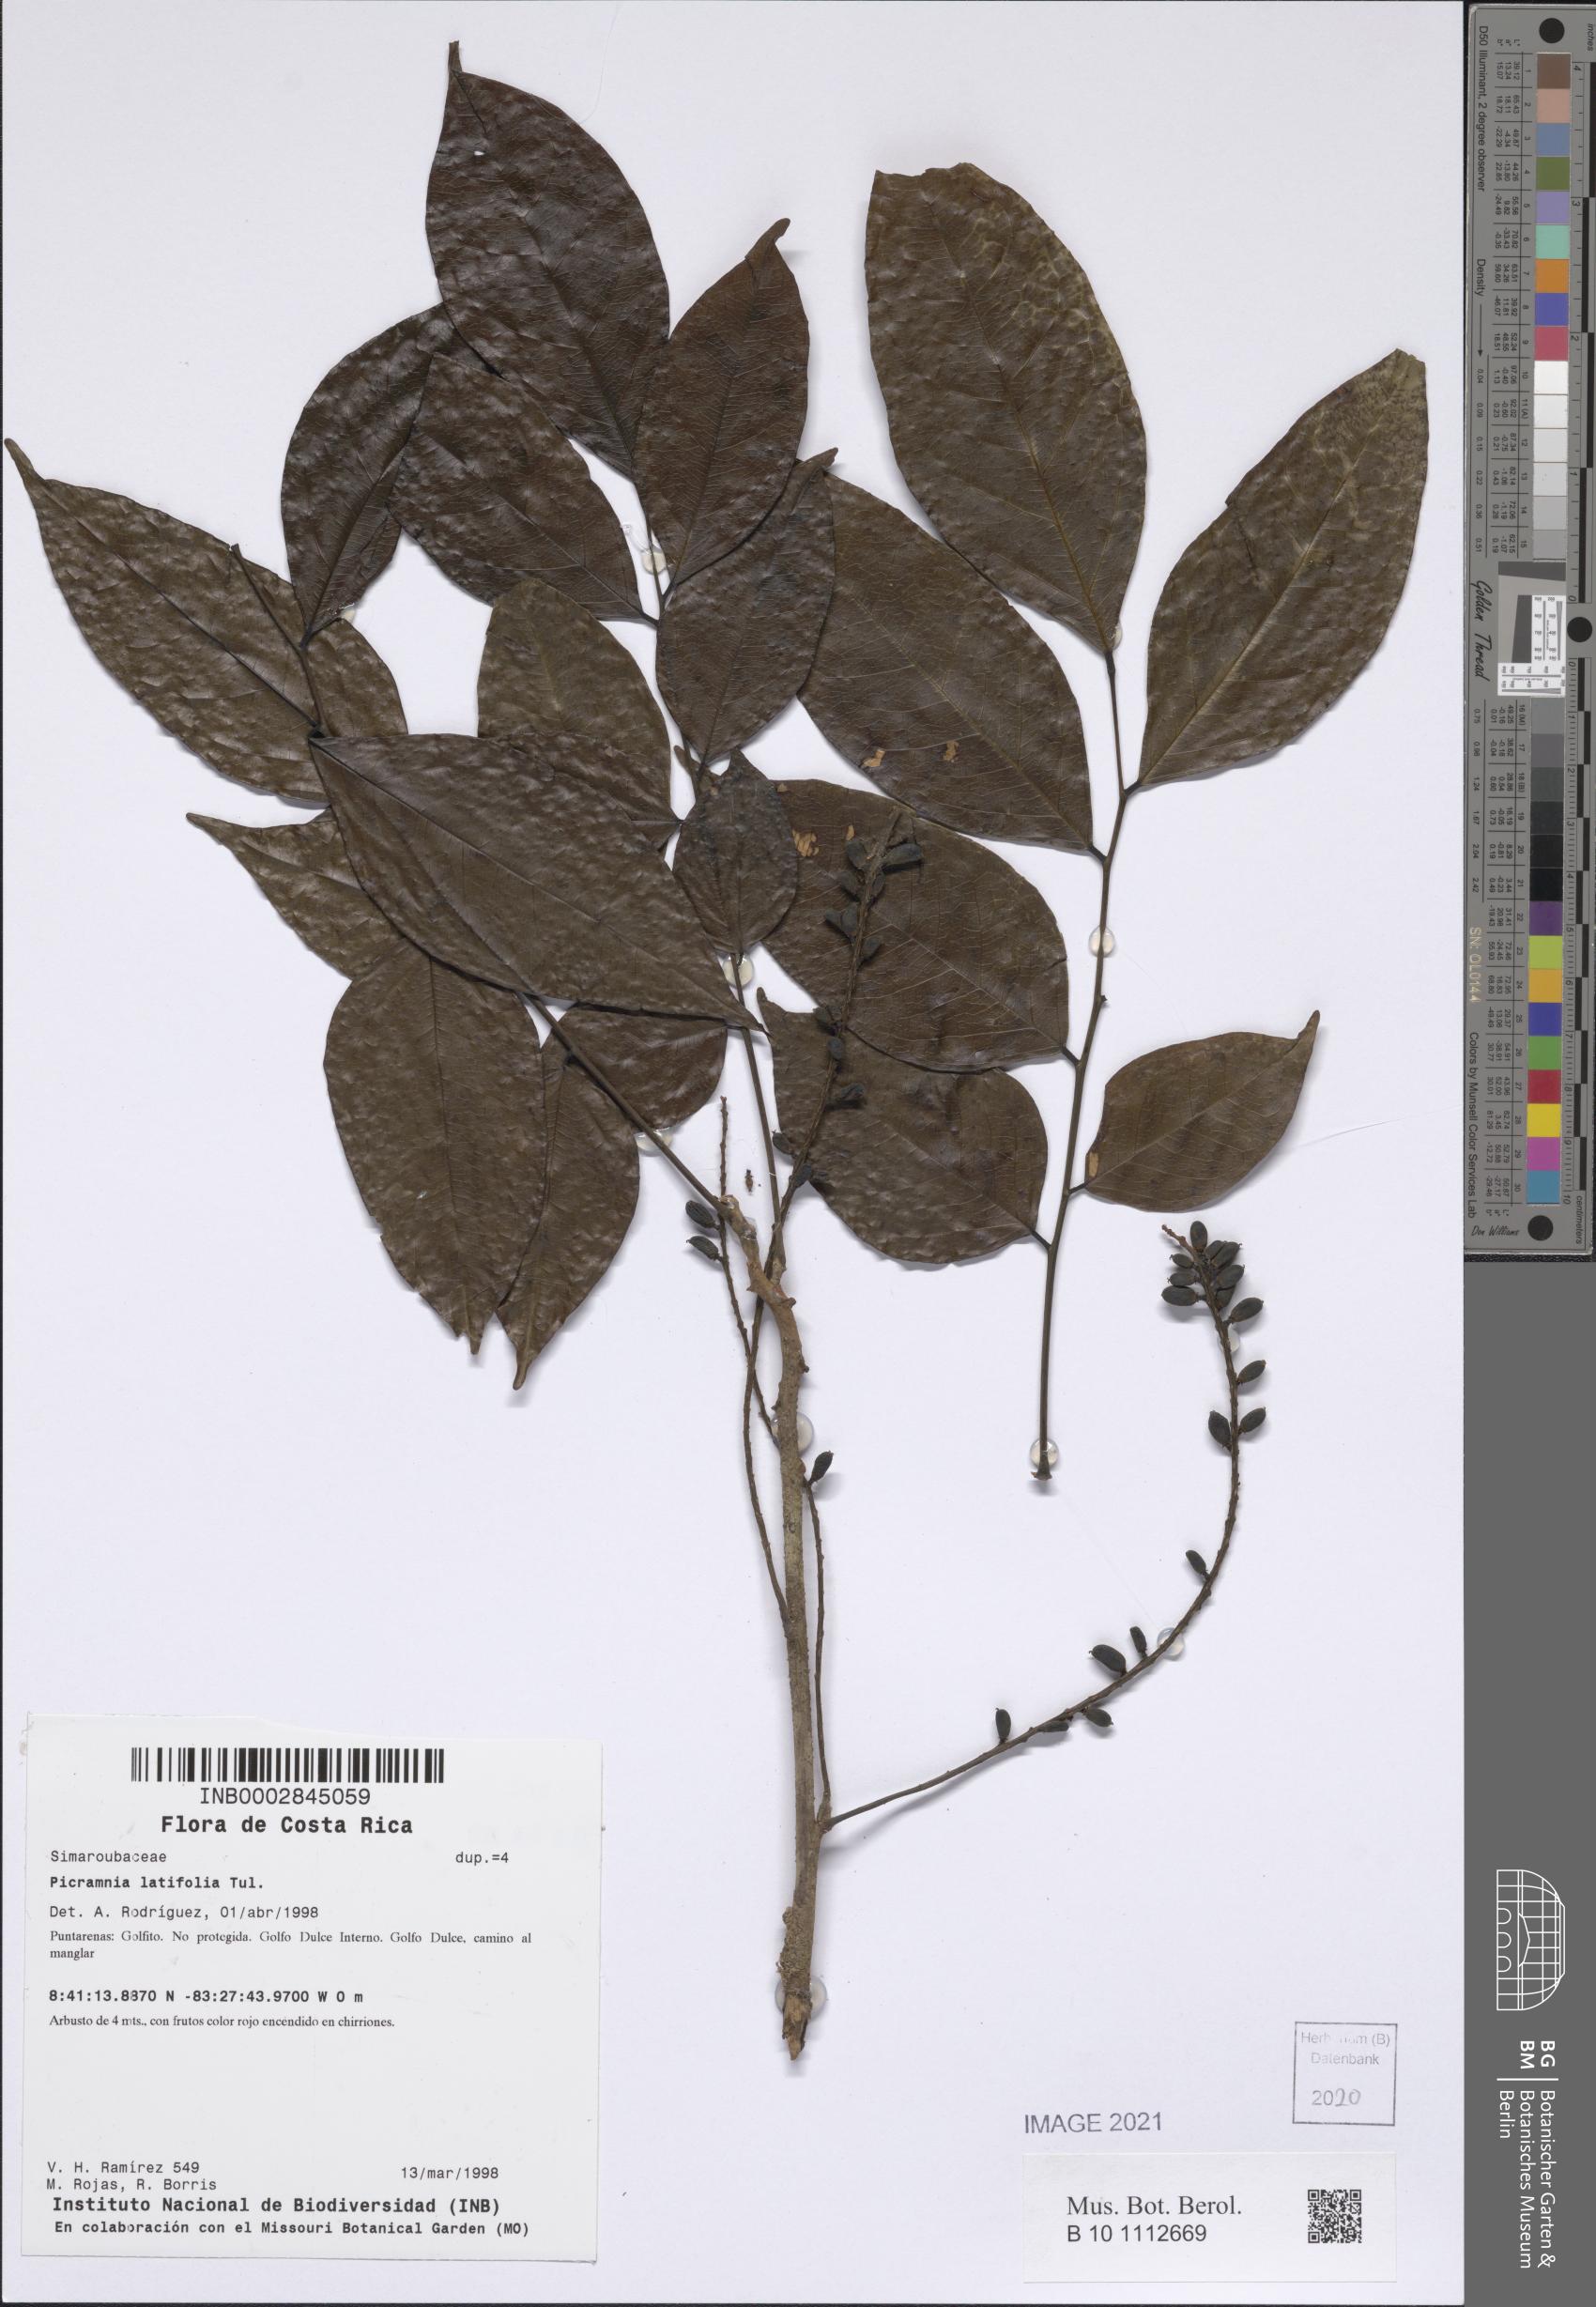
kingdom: Plantae
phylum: Tracheophyta
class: Magnoliopsida
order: Picramniales
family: Picramniaceae
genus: Picramnia
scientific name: Picramnia latifolia
